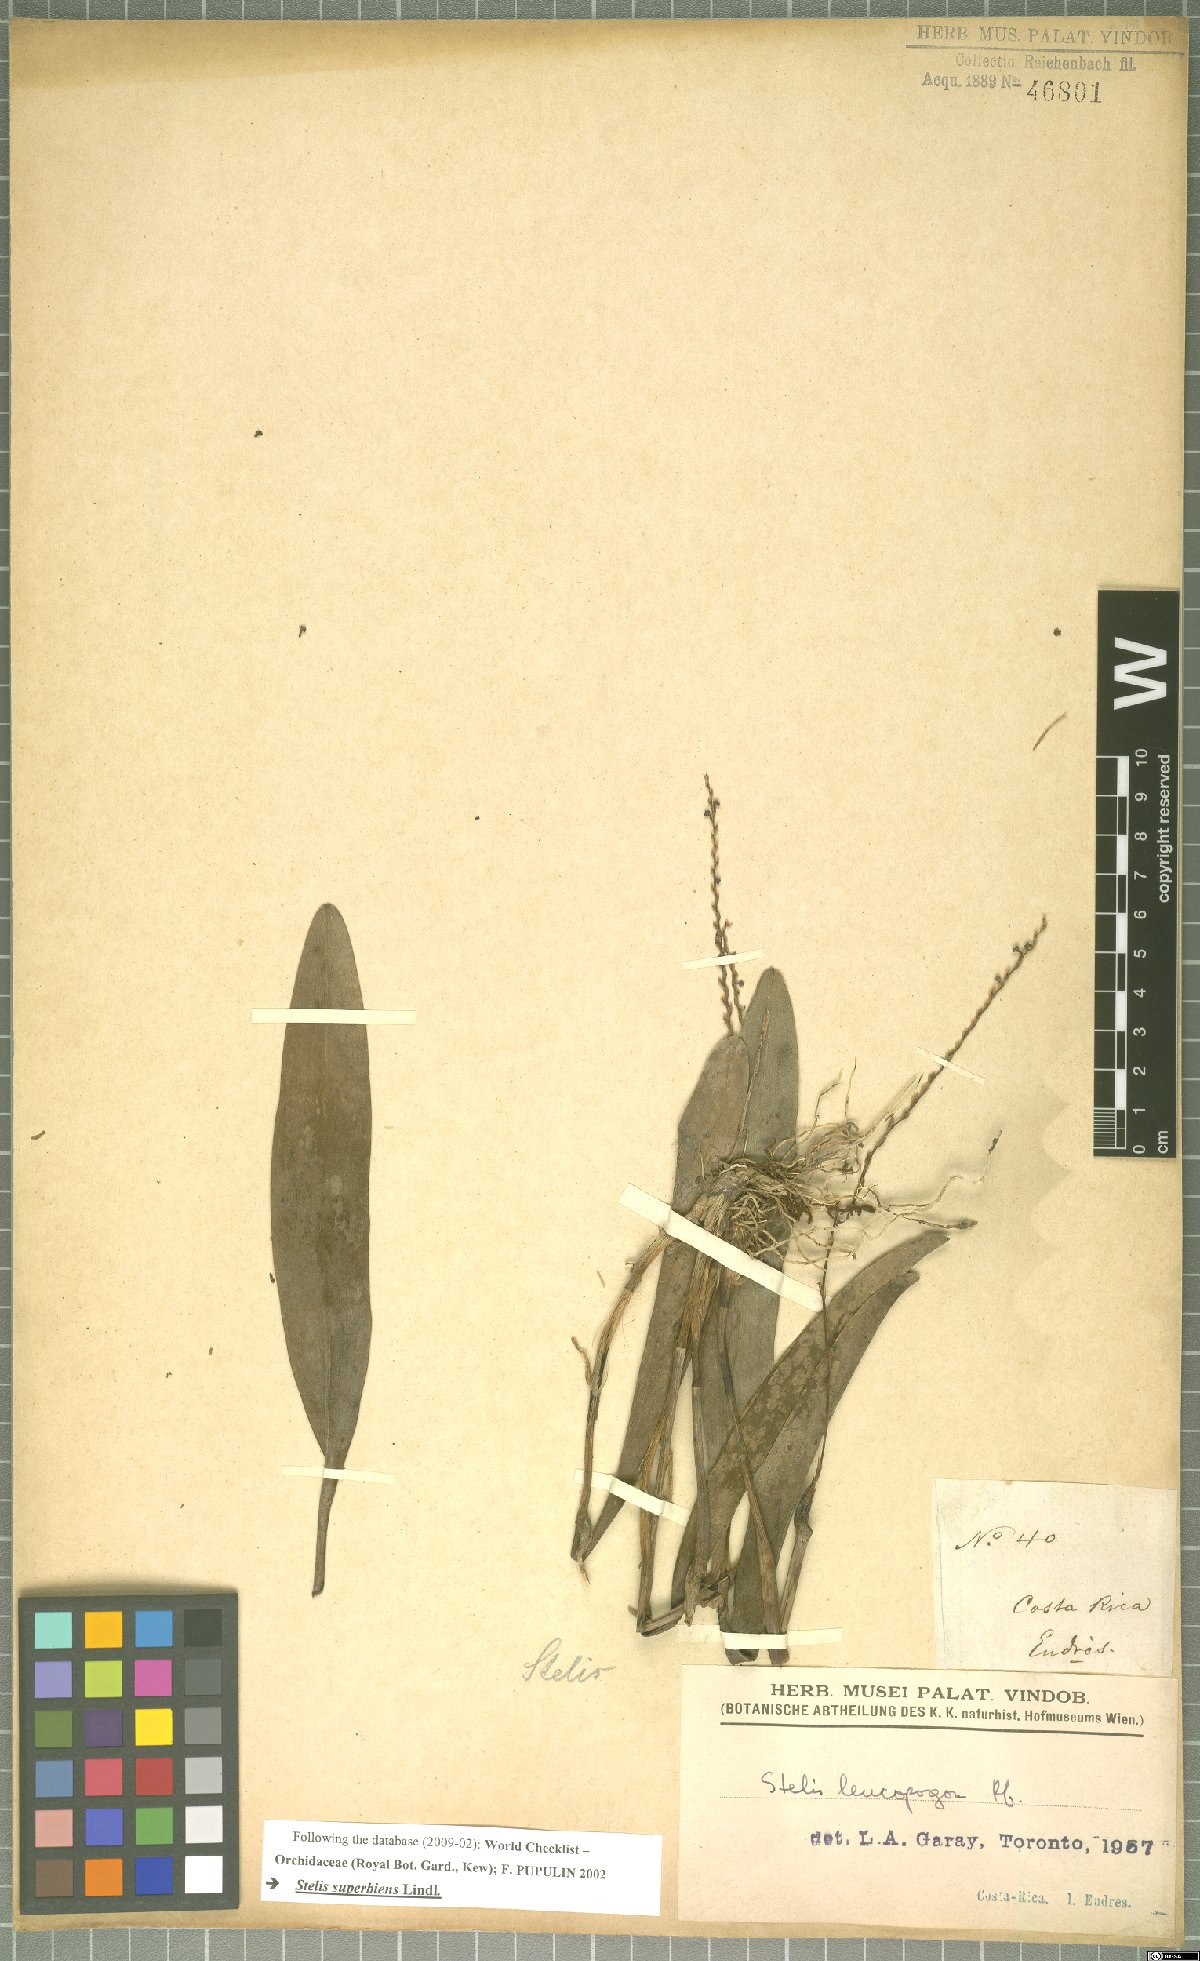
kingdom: Plantae
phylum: Tracheophyta
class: Liliopsida
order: Asparagales
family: Orchidaceae
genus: Stelis
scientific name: Stelis superbiens
